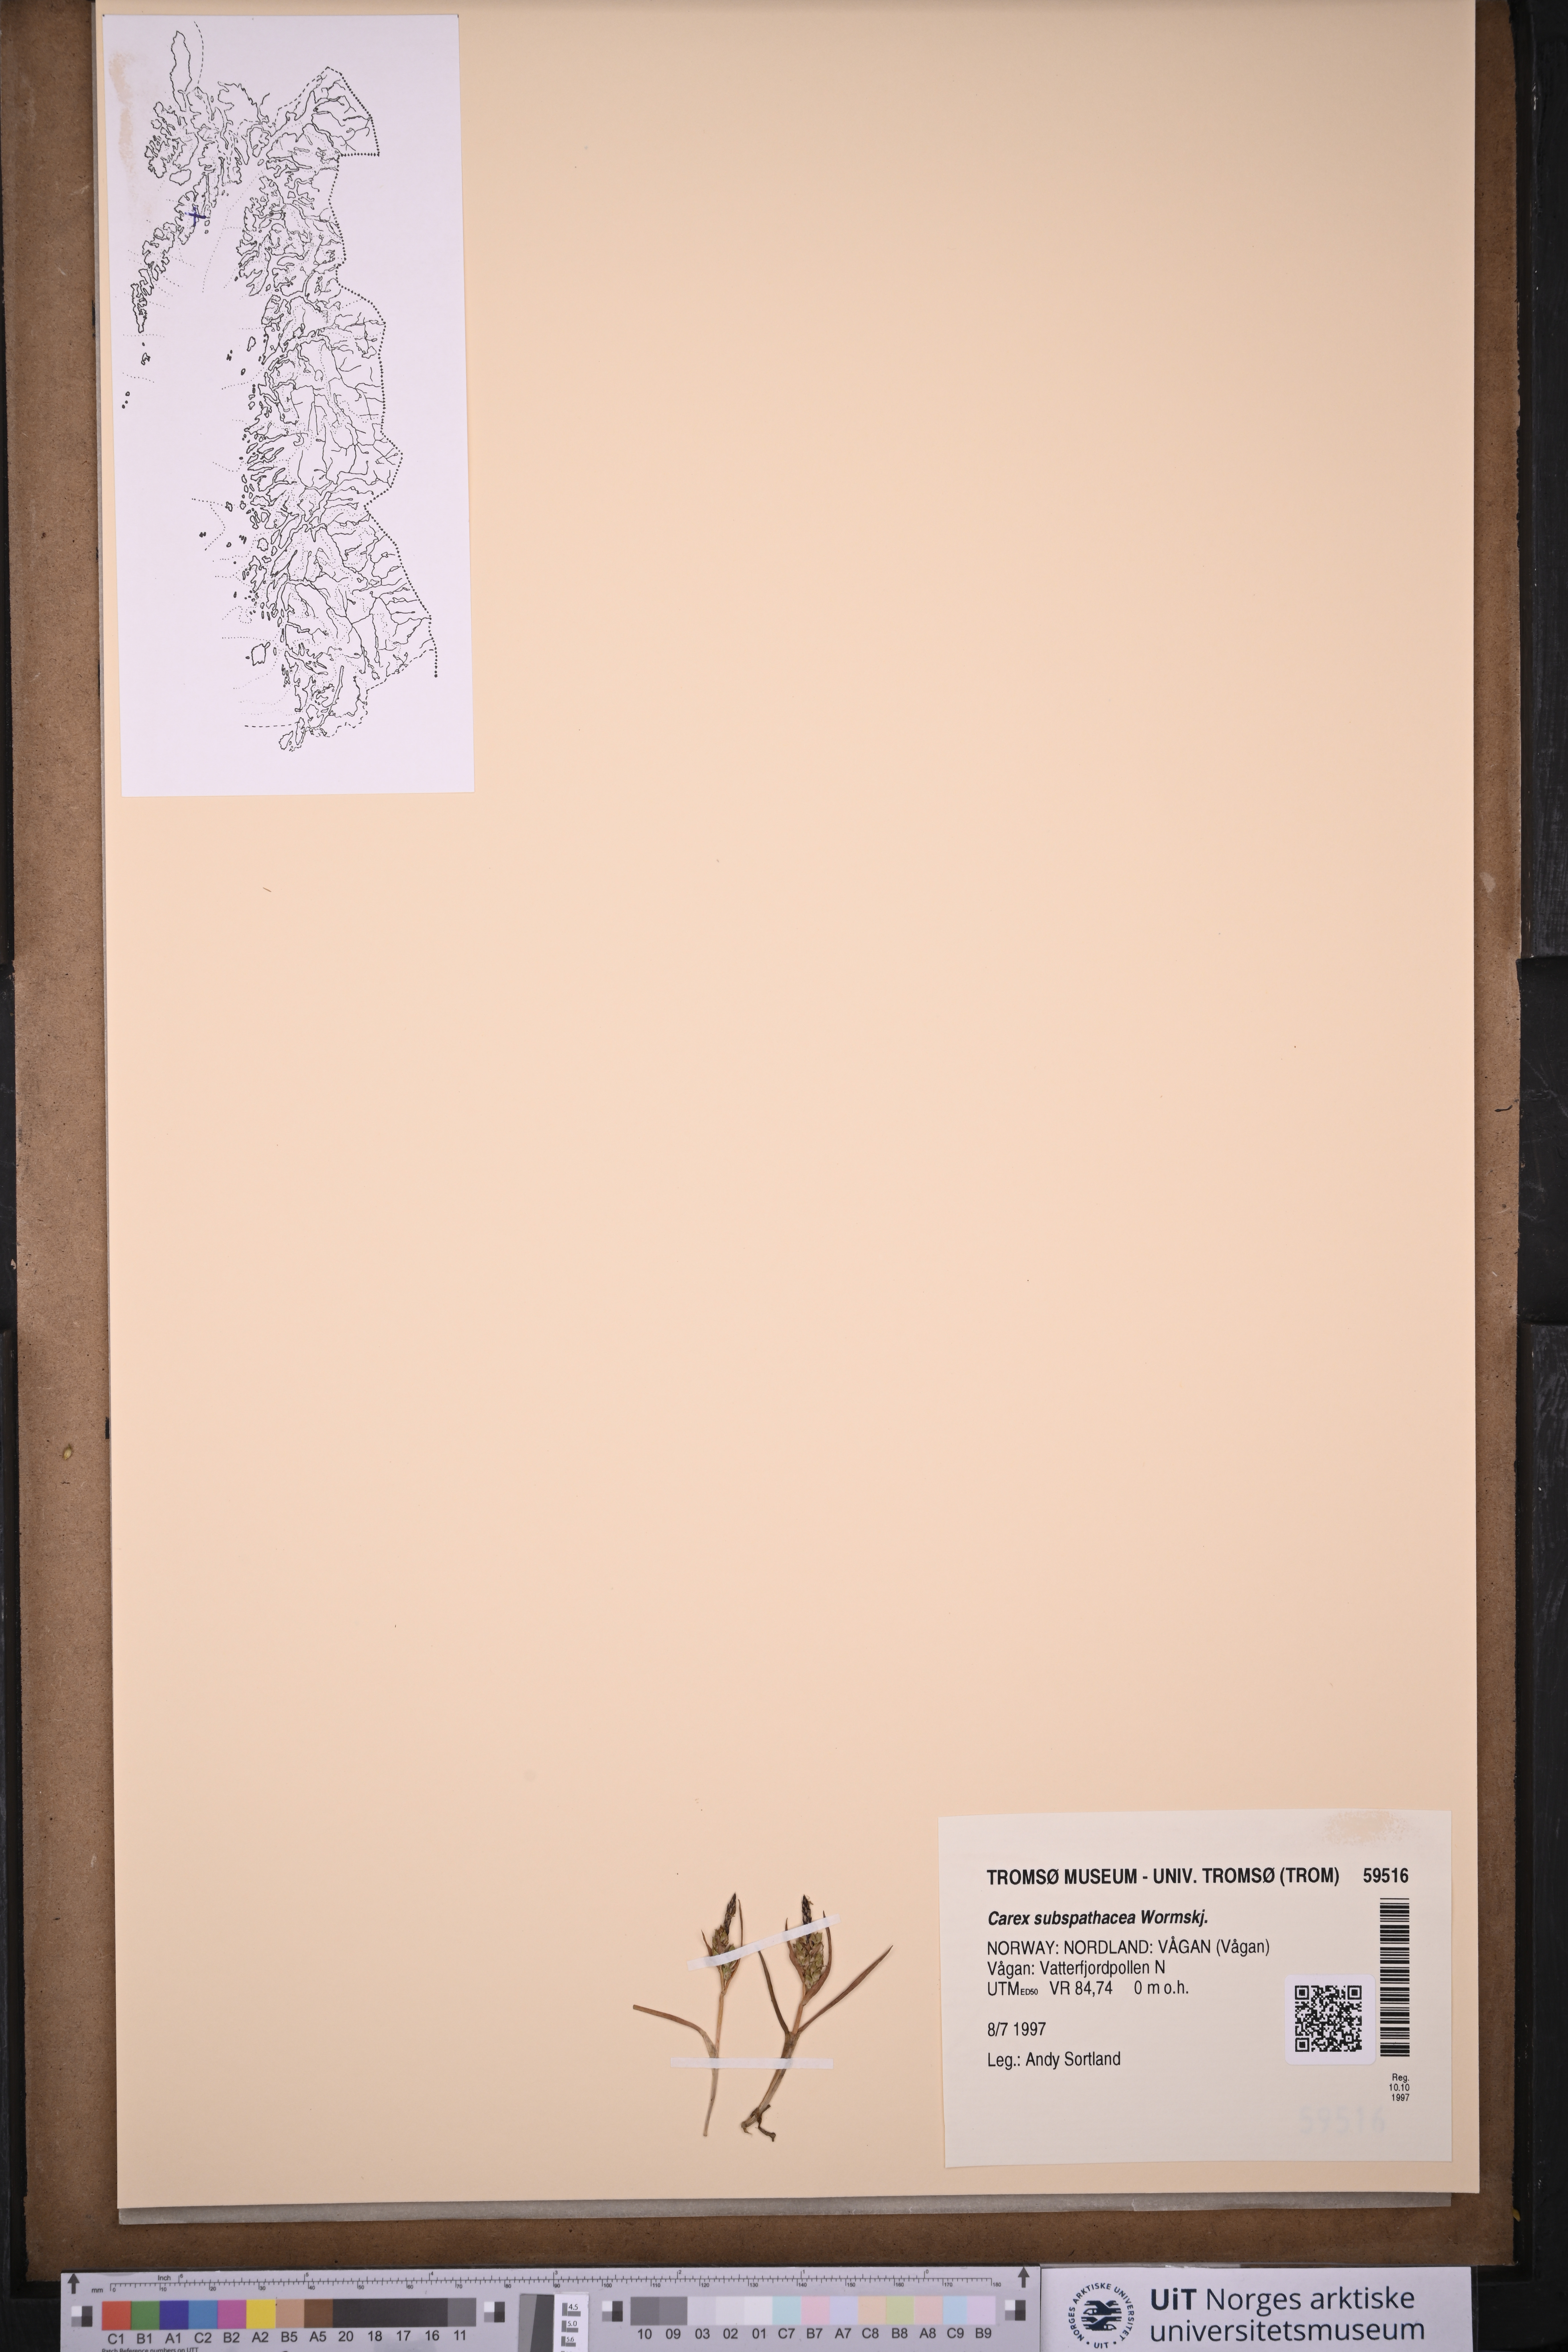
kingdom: Plantae
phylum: Tracheophyta
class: Liliopsida
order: Poales
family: Cyperaceae
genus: Carex
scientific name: Carex subspathacea
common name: Hoppner's sedge
